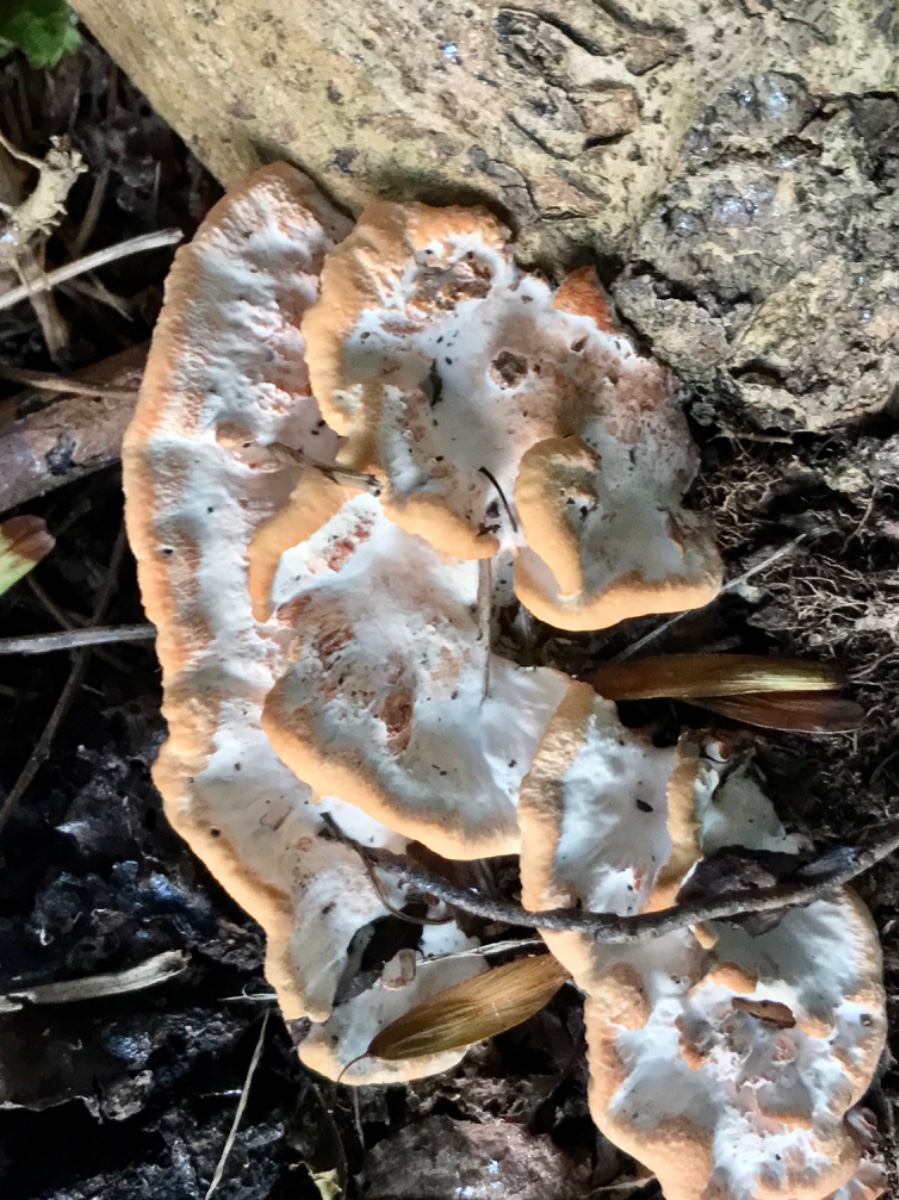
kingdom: Fungi
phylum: Basidiomycota
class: Agaricomycetes
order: Polyporales
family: Podoscyphaceae
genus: Abortiporus
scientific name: Abortiporus biennis
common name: rødmende pjalteporesvamp
